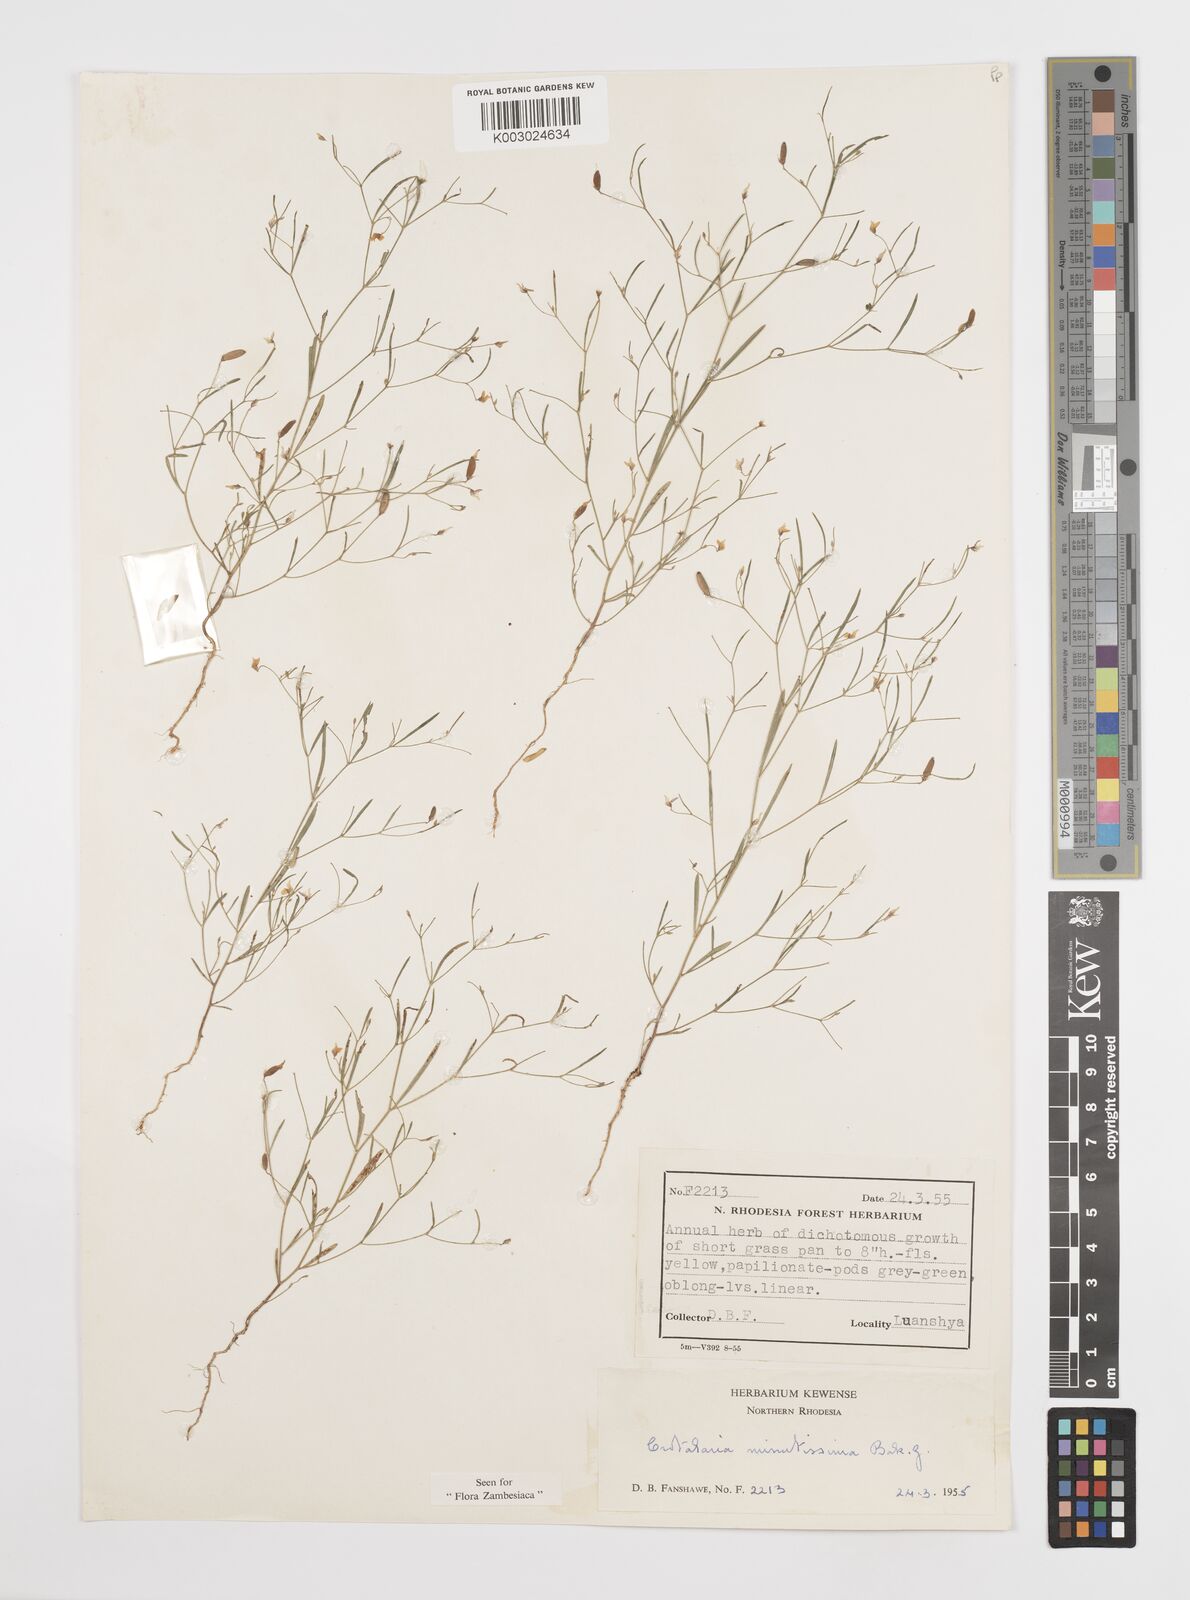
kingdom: Plantae
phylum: Tracheophyta
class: Magnoliopsida
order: Fabales
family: Fabaceae
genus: Crotalaria
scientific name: Crotalaria minutissima
